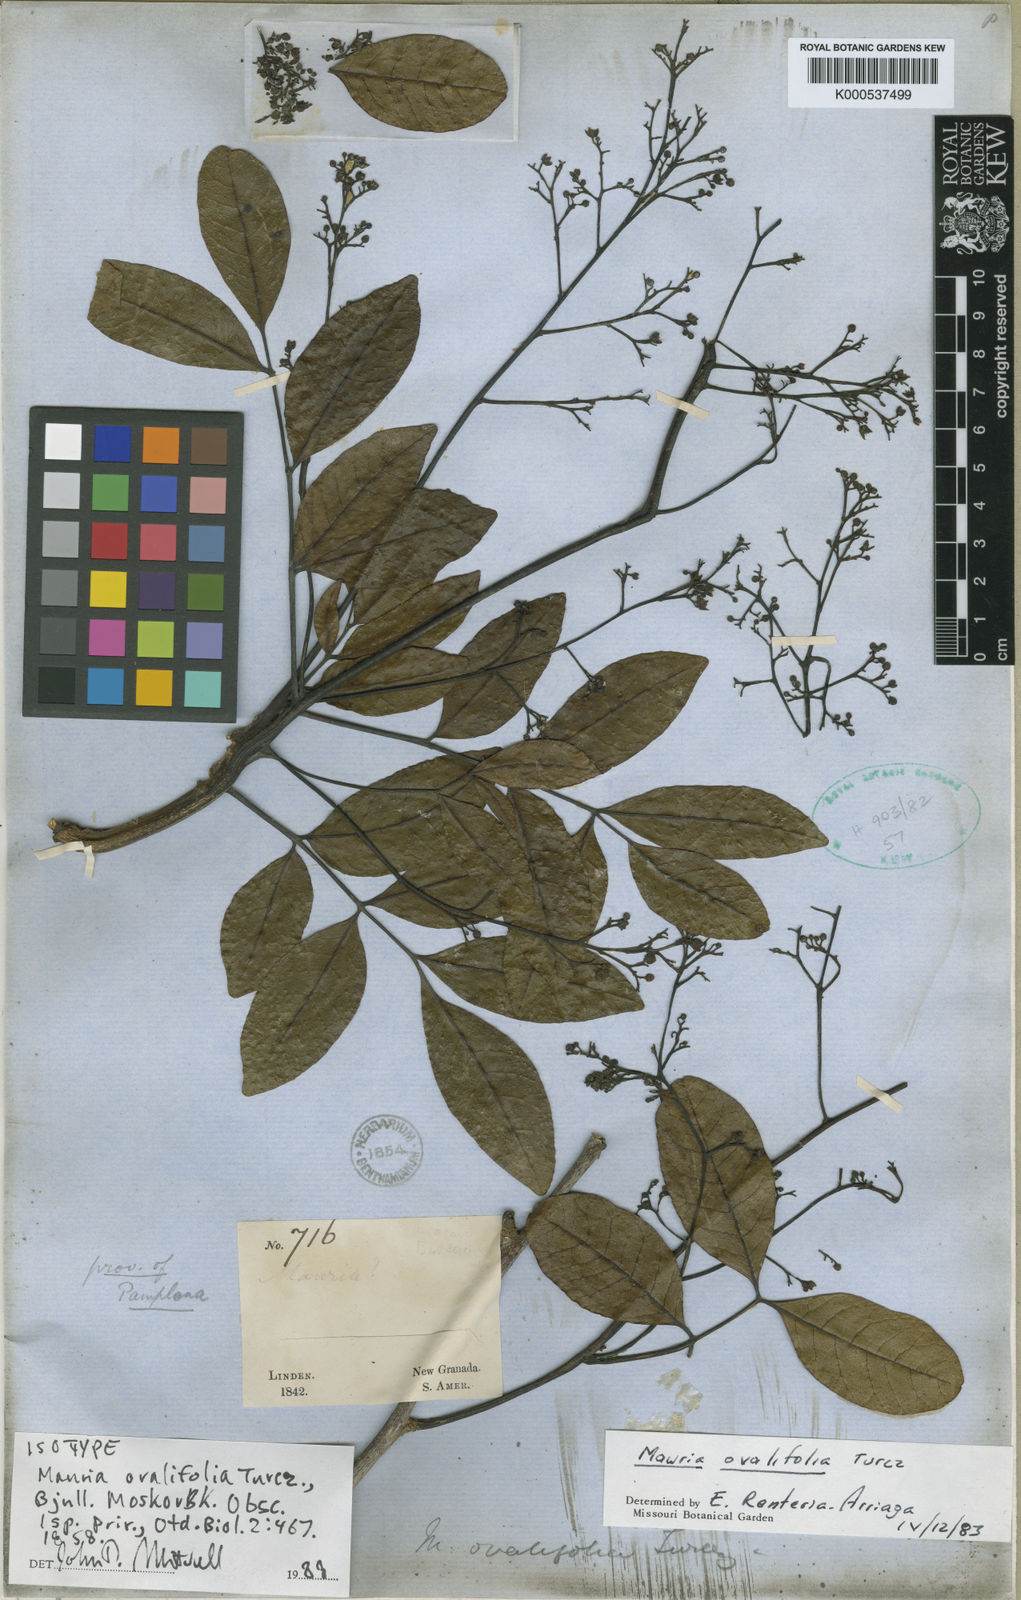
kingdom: Plantae
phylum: Tracheophyta
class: Magnoliopsida
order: Sapindales
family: Anacardiaceae
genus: Mauria
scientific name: Mauria heterophylla
